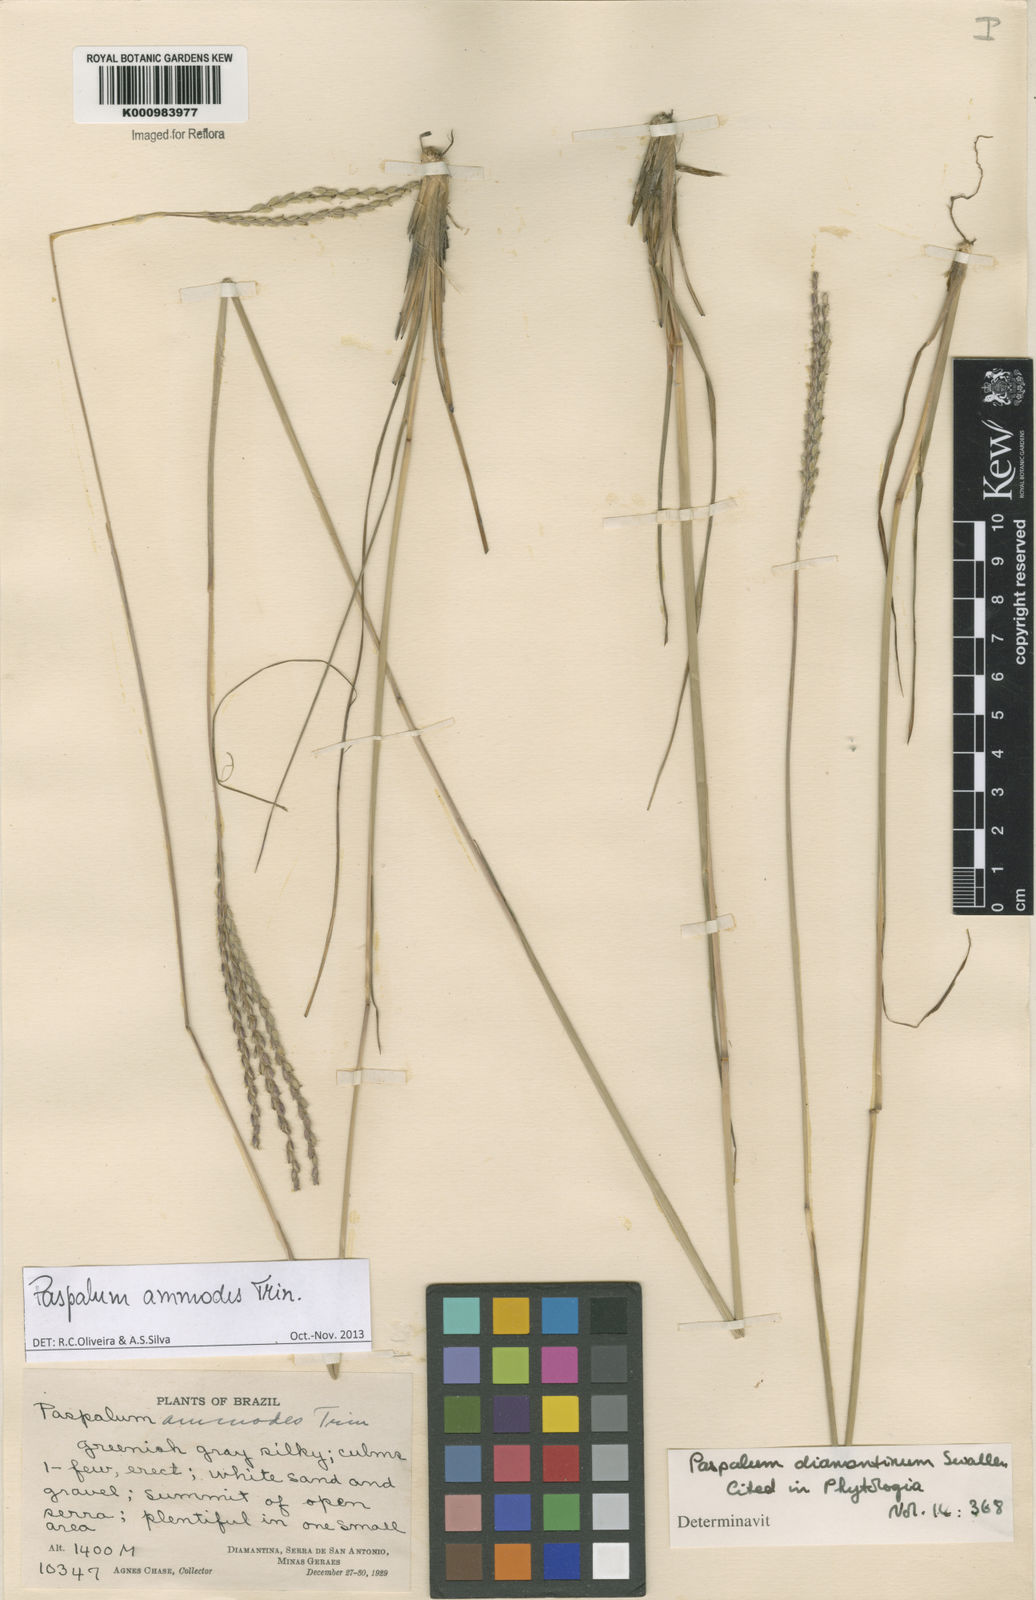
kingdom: Plantae
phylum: Tracheophyta
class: Liliopsida
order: Poales
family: Poaceae
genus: Paspalum
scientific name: Paspalum ammodes
